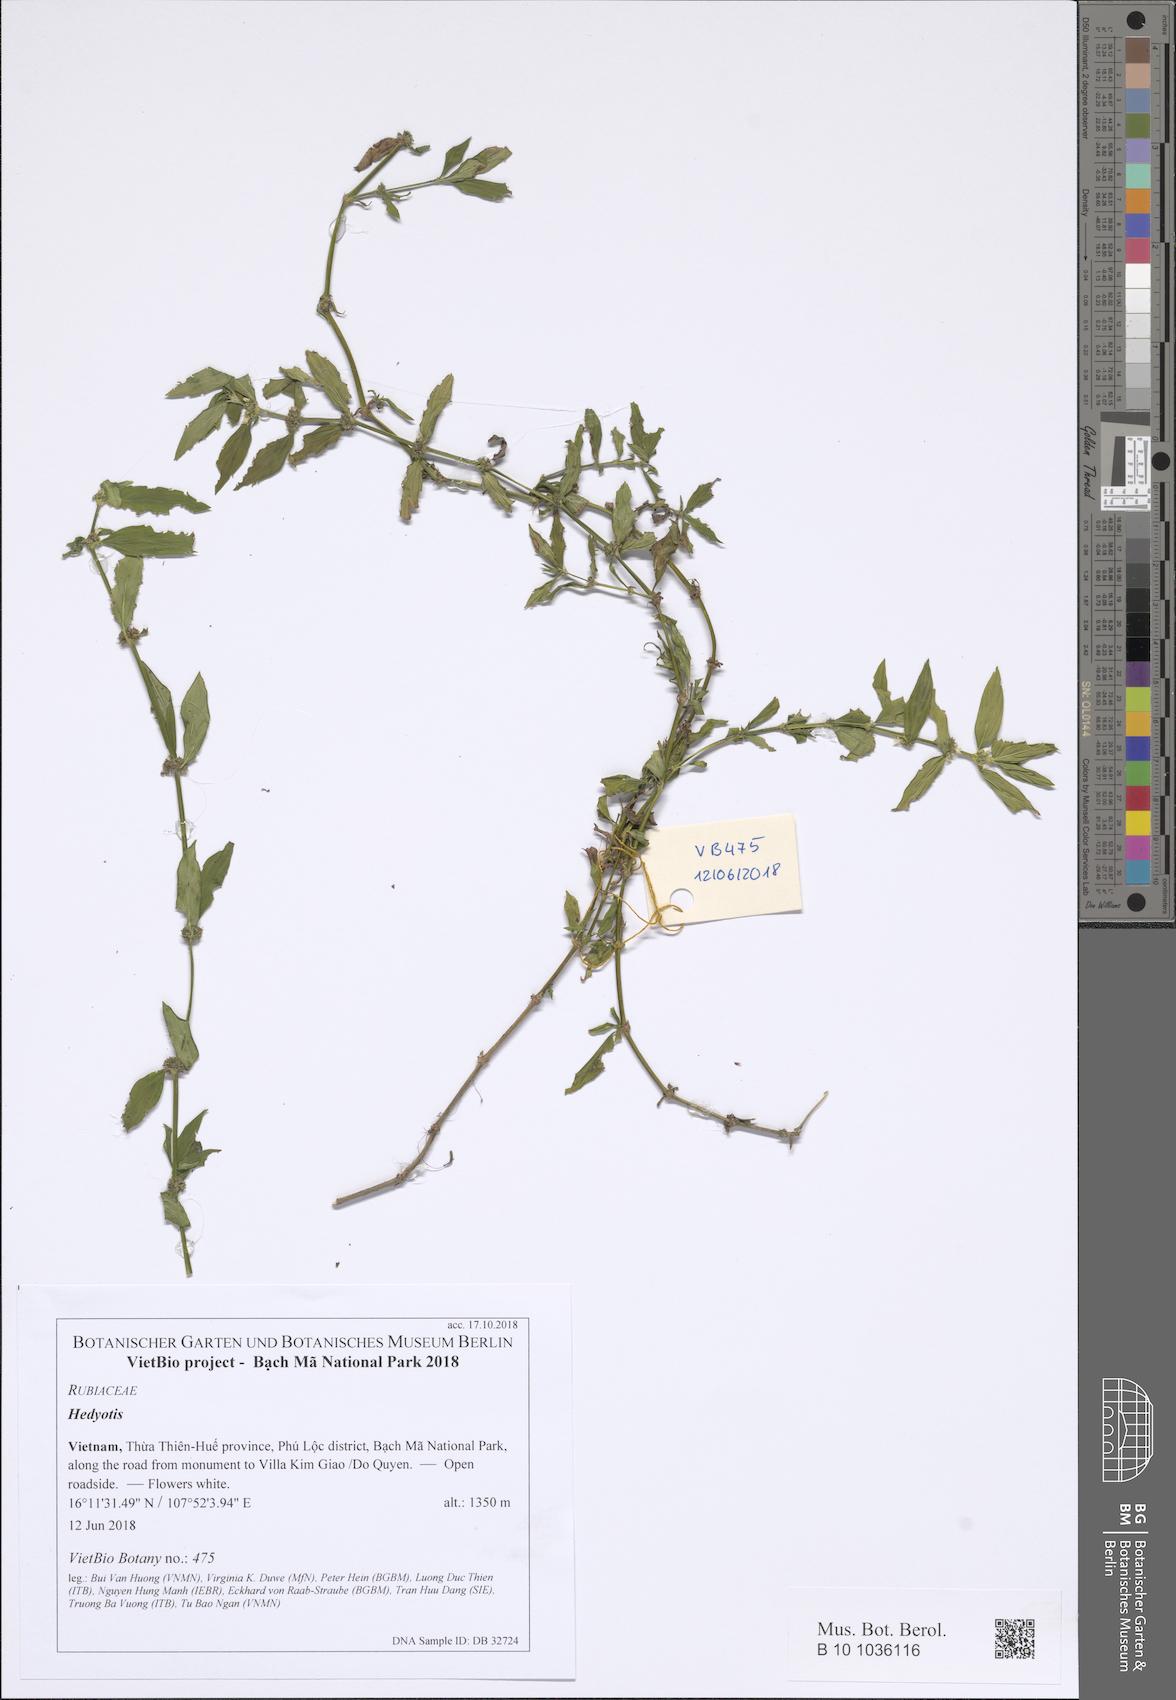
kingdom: Plantae
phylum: Tracheophyta
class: Magnoliopsida
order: Gentianales
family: Rubiaceae
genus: Hedyotis
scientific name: Hedyotis
